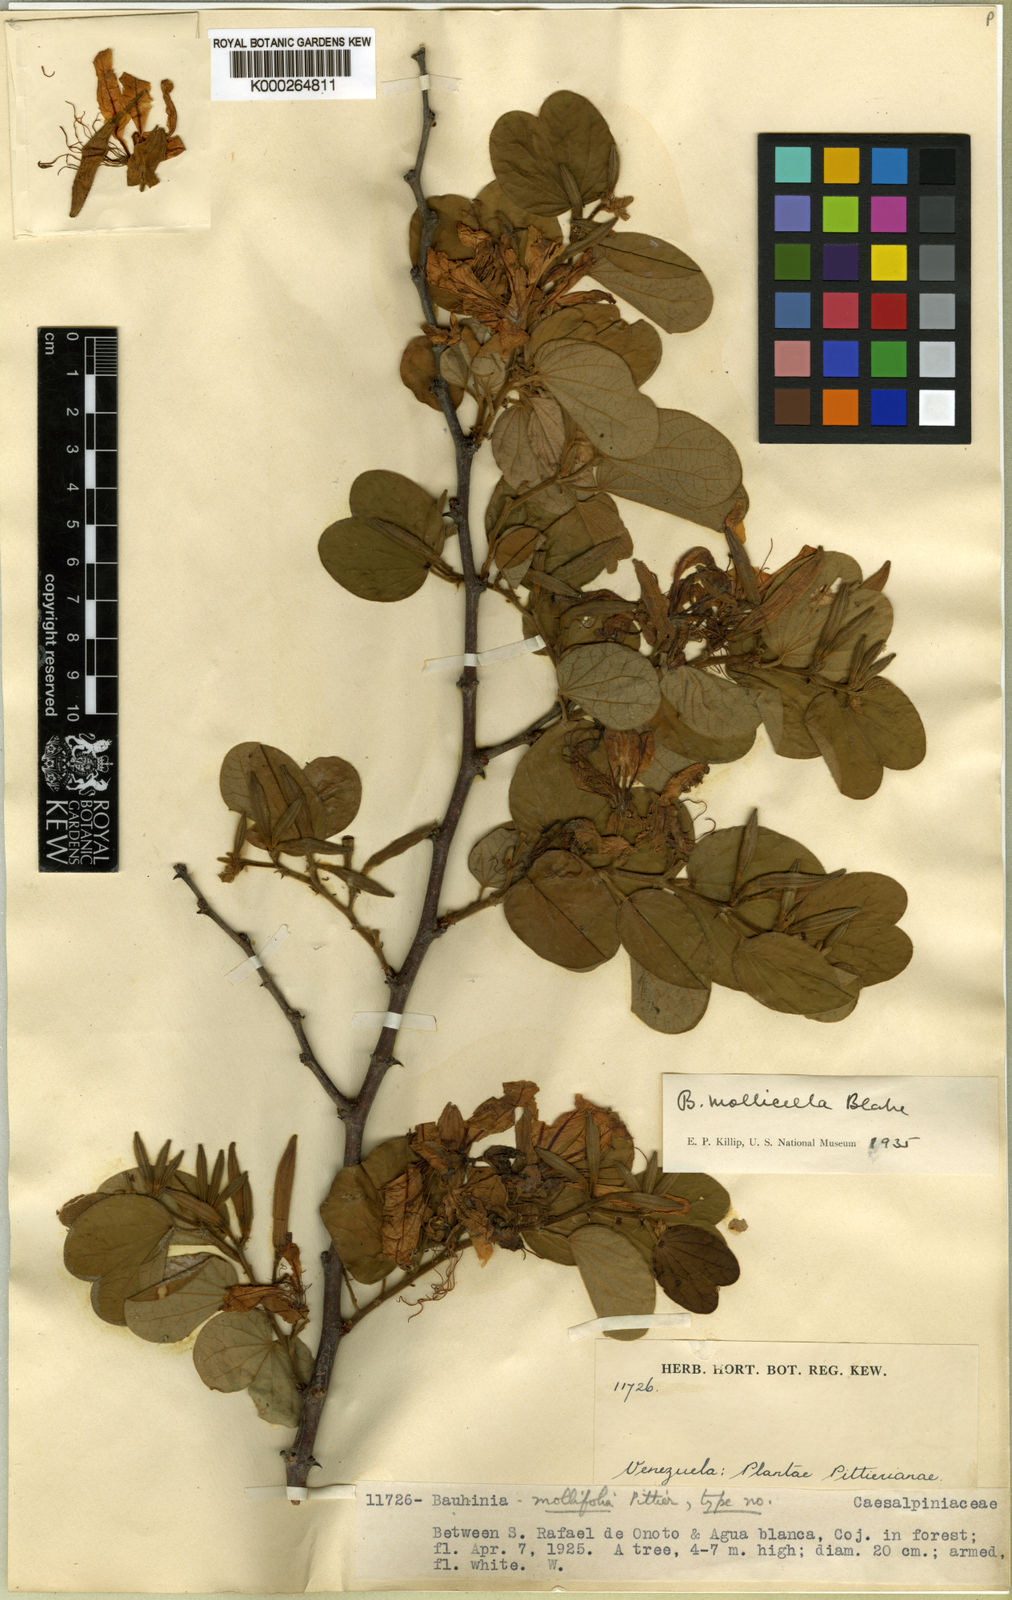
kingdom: Plantae
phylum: Tracheophyta
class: Magnoliopsida
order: Fabales
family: Fabaceae
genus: Bauhinia
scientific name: Bauhinia aculeata
